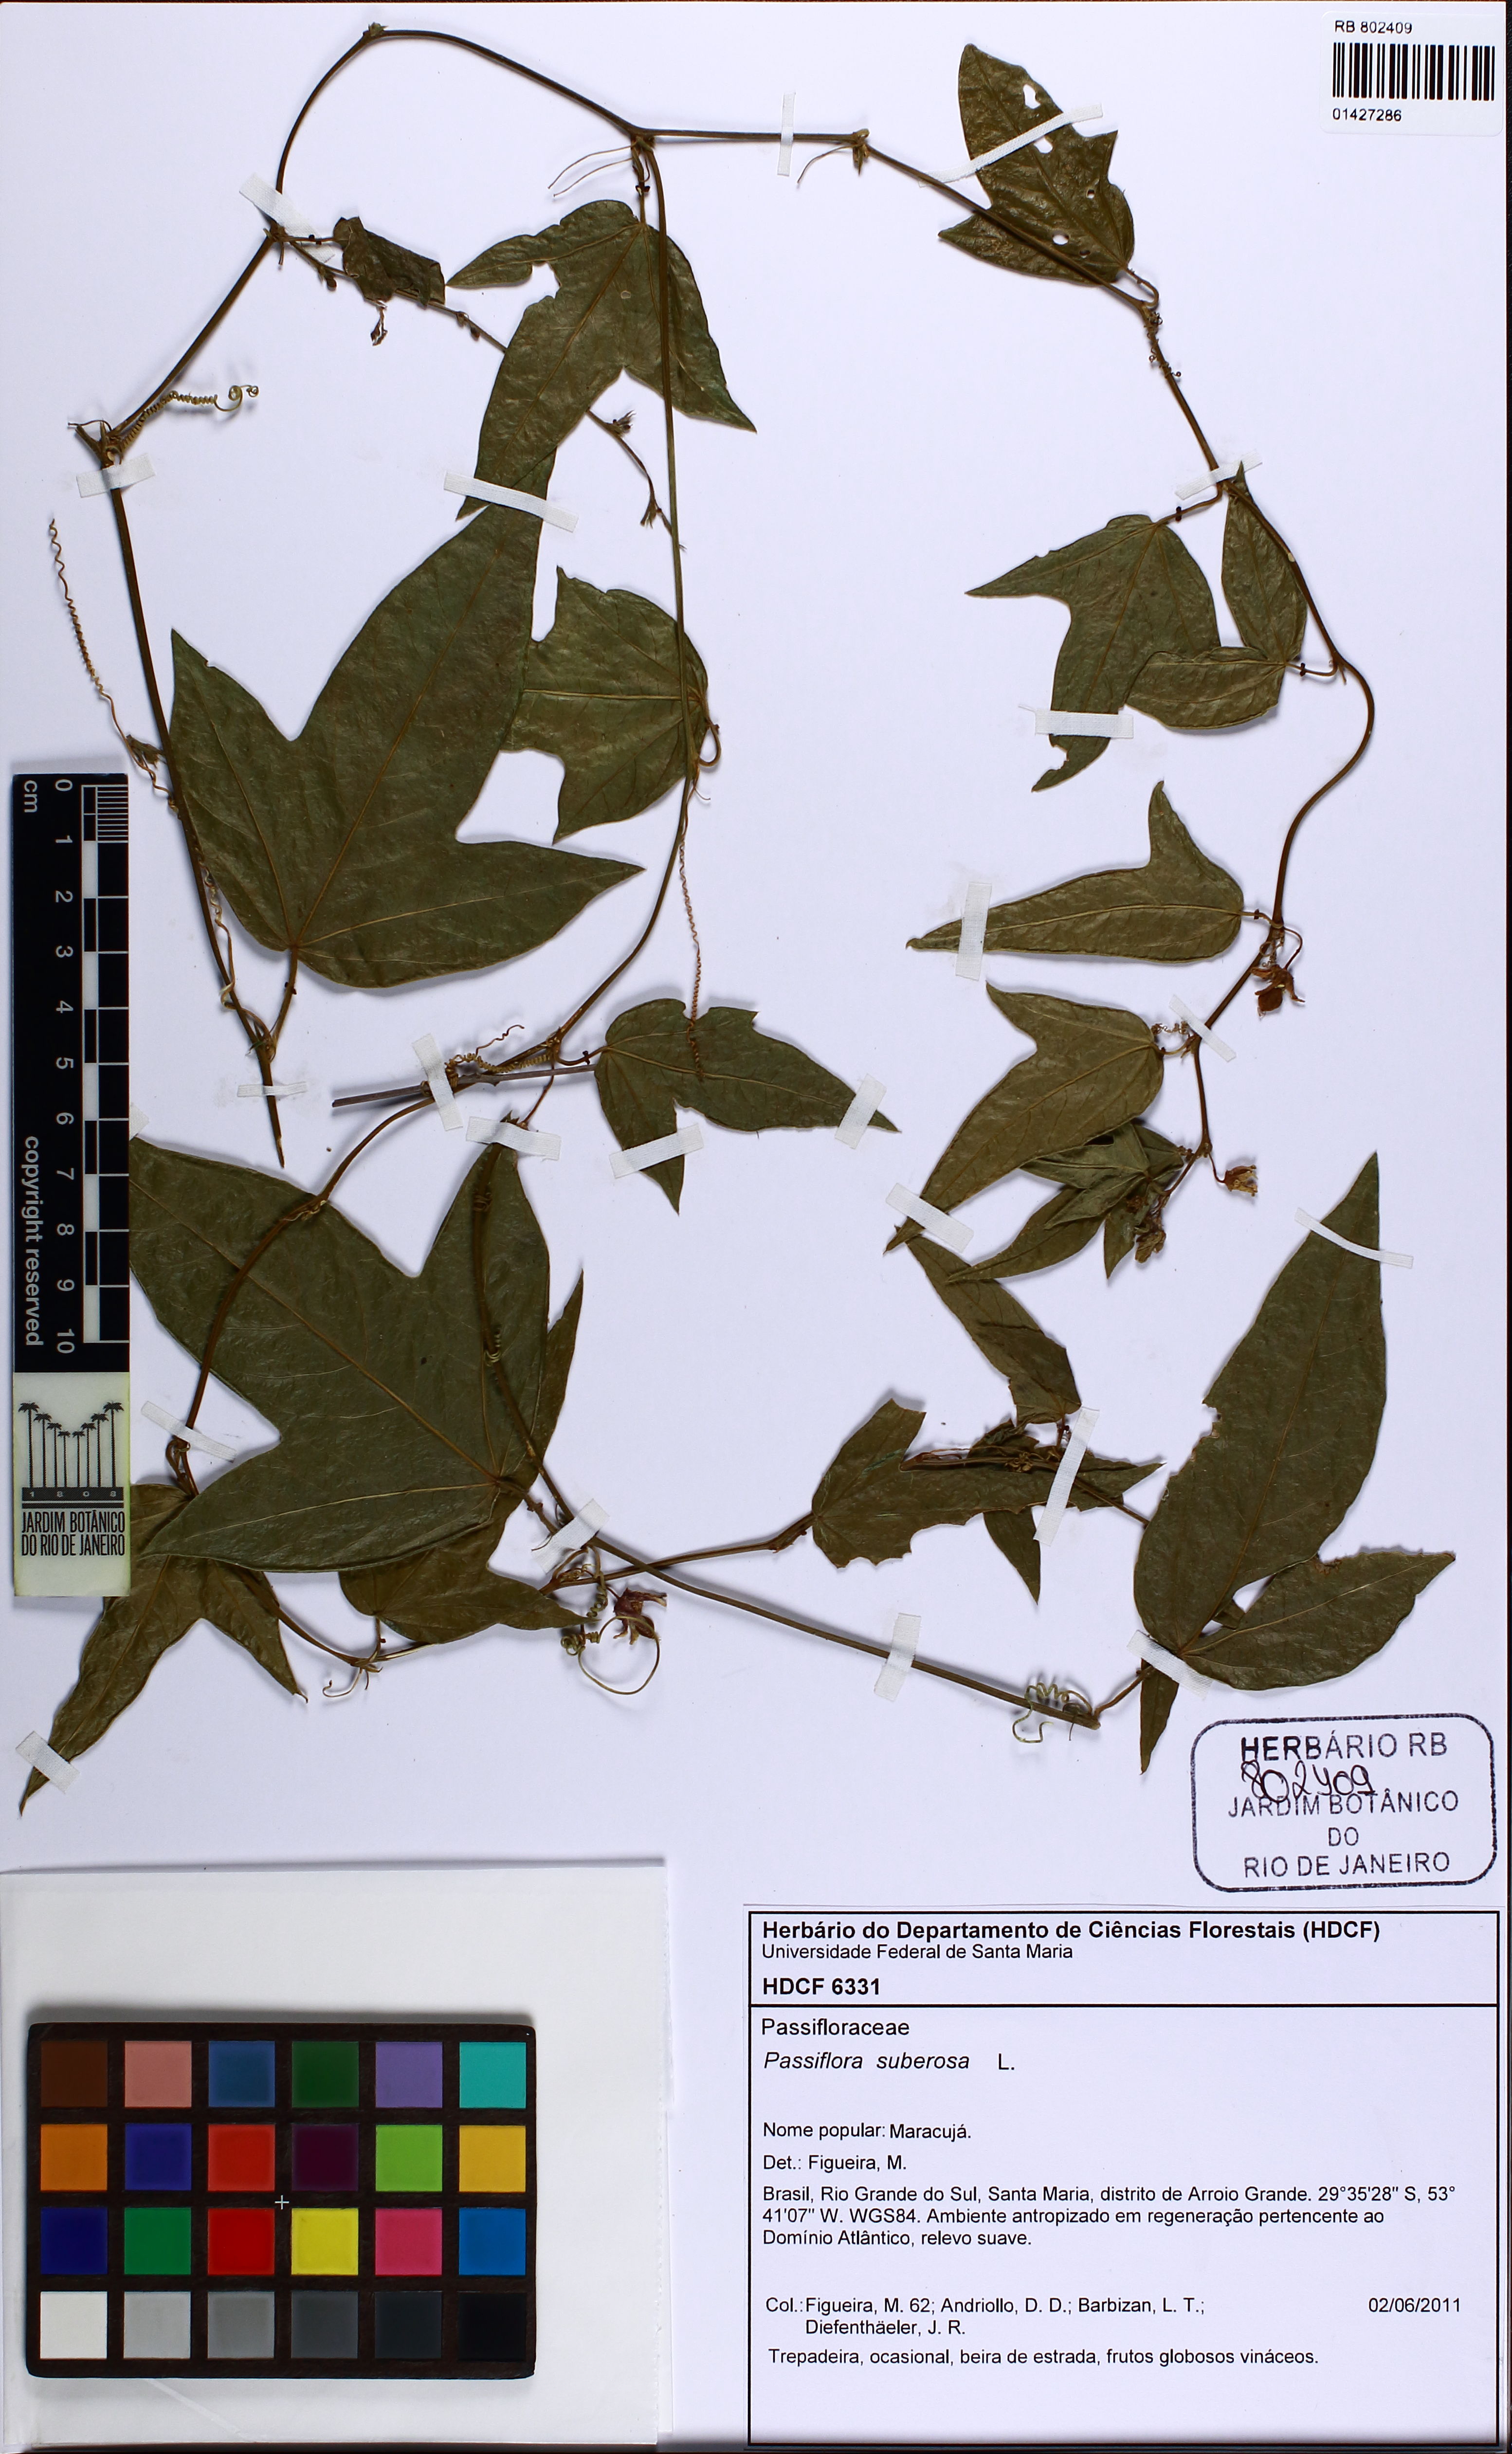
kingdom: Plantae
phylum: Tracheophyta
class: Magnoliopsida
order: Malpighiales
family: Passifloraceae
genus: Passiflora
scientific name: Passiflora suberosa
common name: Wild passionfruit
